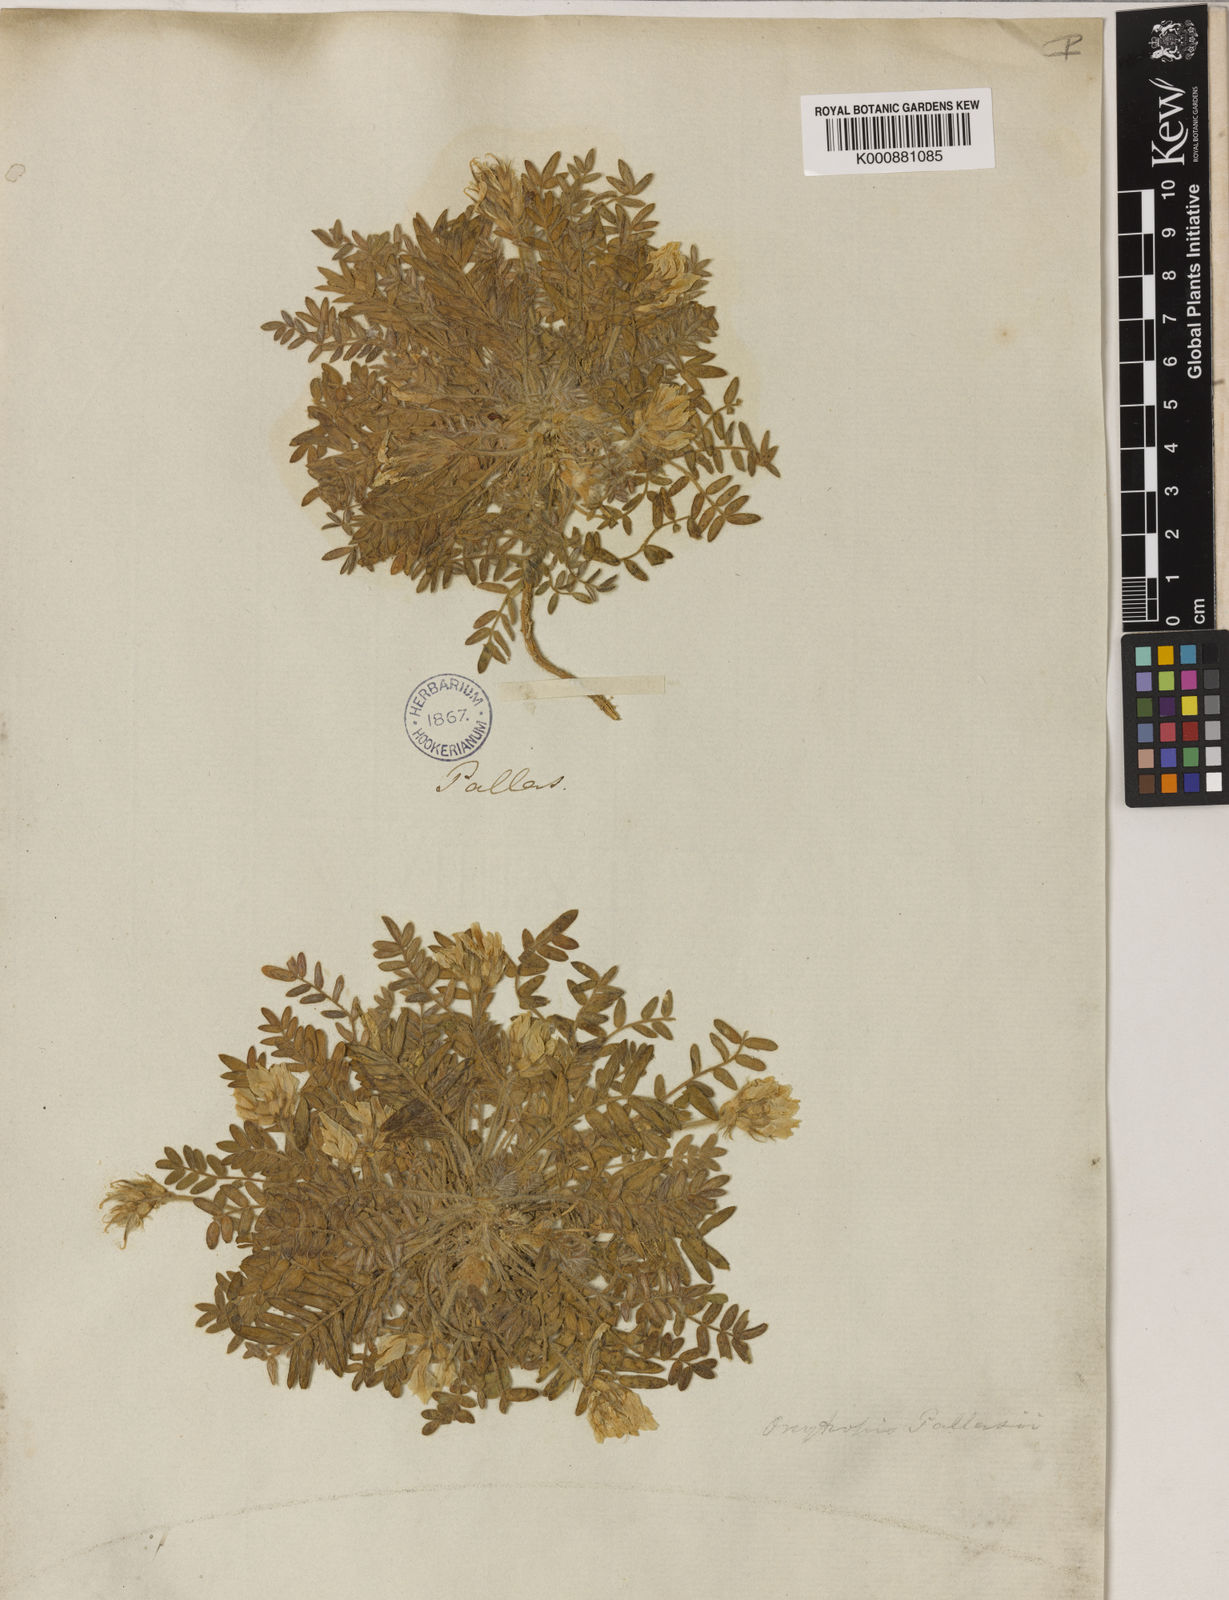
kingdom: Plantae
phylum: Tracheophyta
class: Magnoliopsida
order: Fabales
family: Fabaceae
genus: Oxytropis
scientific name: Oxytropis pallasii
